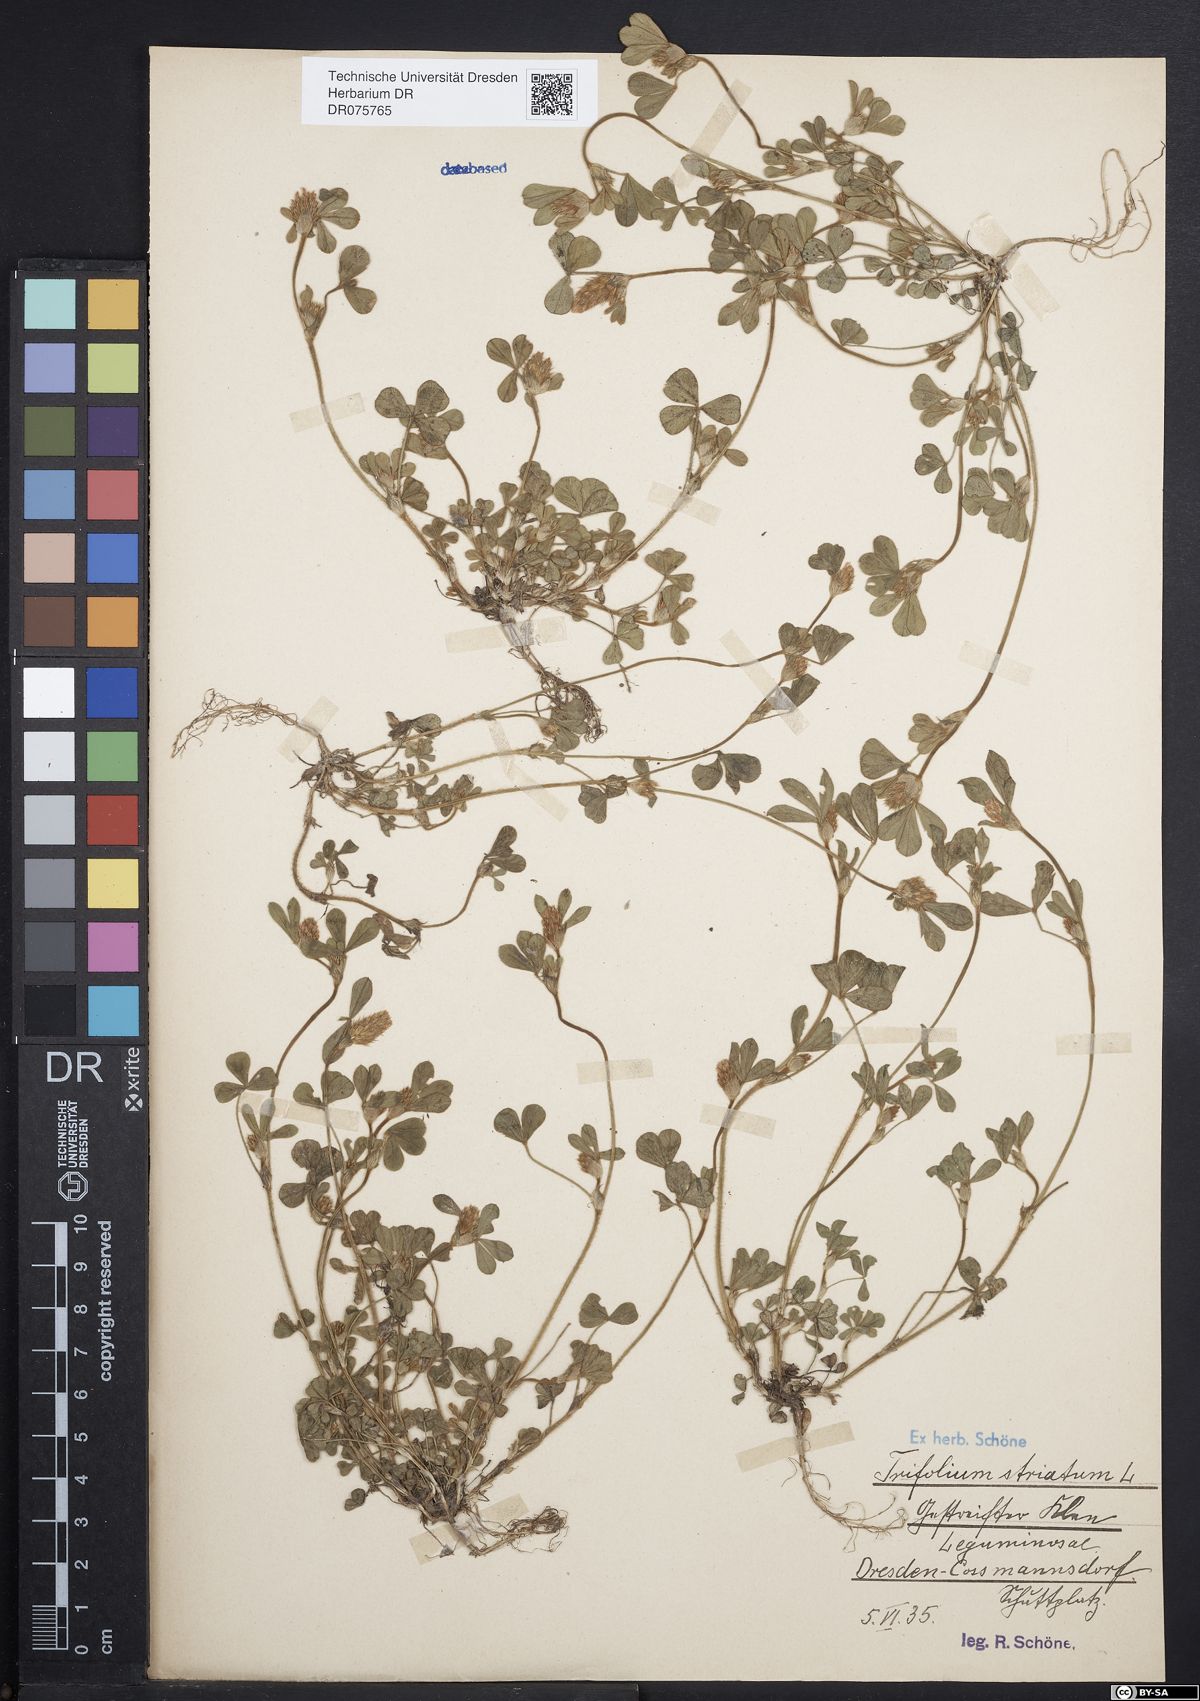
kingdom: Plantae
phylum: Tracheophyta
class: Magnoliopsida
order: Fabales
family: Fabaceae
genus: Trifolium
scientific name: Trifolium striatum
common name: Knotted clover
